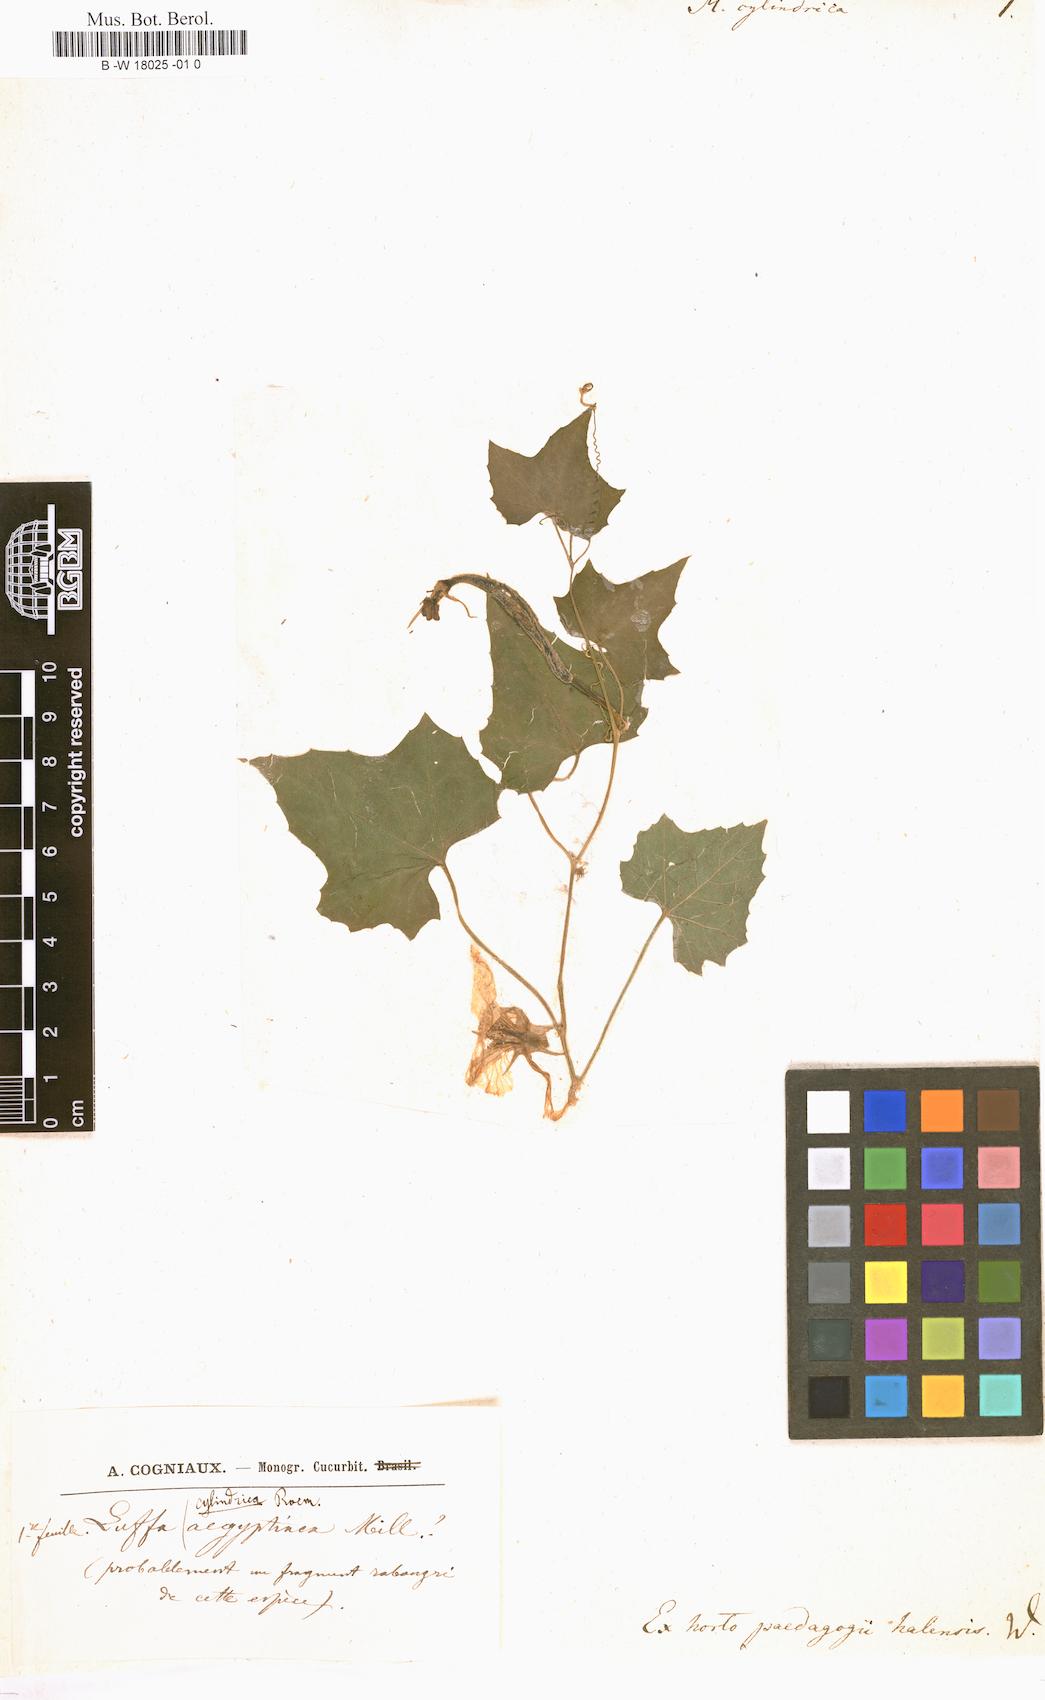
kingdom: Plantae
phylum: Tracheophyta
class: Magnoliopsida
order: Cucurbitales
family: Cucurbitaceae
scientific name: Cucurbitaceae
